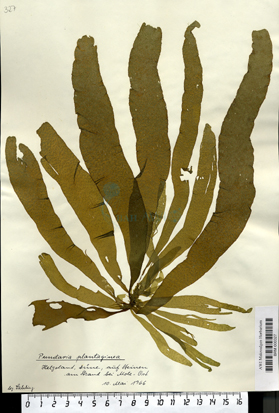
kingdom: Chromista
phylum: Ochrophyta
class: Phaeophyceae
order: Ectocarpales
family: Chordariaceae
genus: Punctaria
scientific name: Punctaria plantaginea
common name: Ribbon weed
